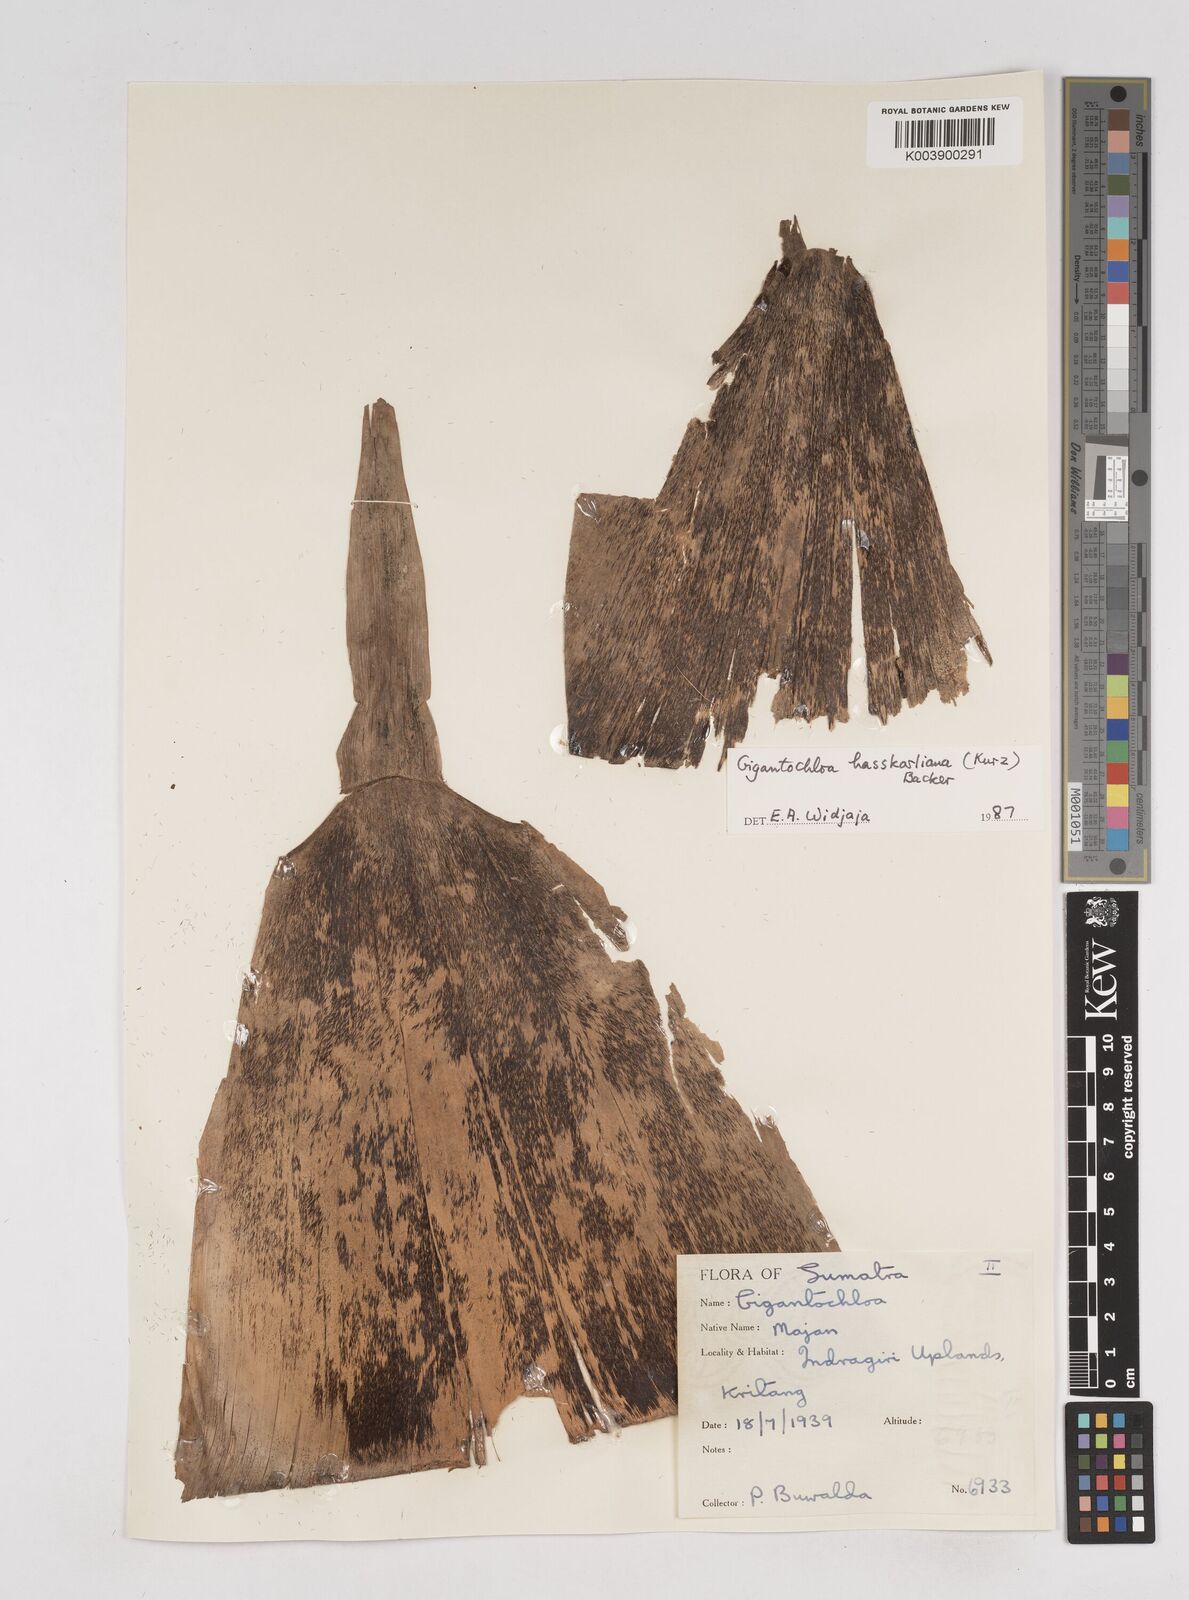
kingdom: Plantae
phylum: Tracheophyta
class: Liliopsida
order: Poales
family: Poaceae
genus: Gigantochloa
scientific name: Gigantochloa hasskarliana
